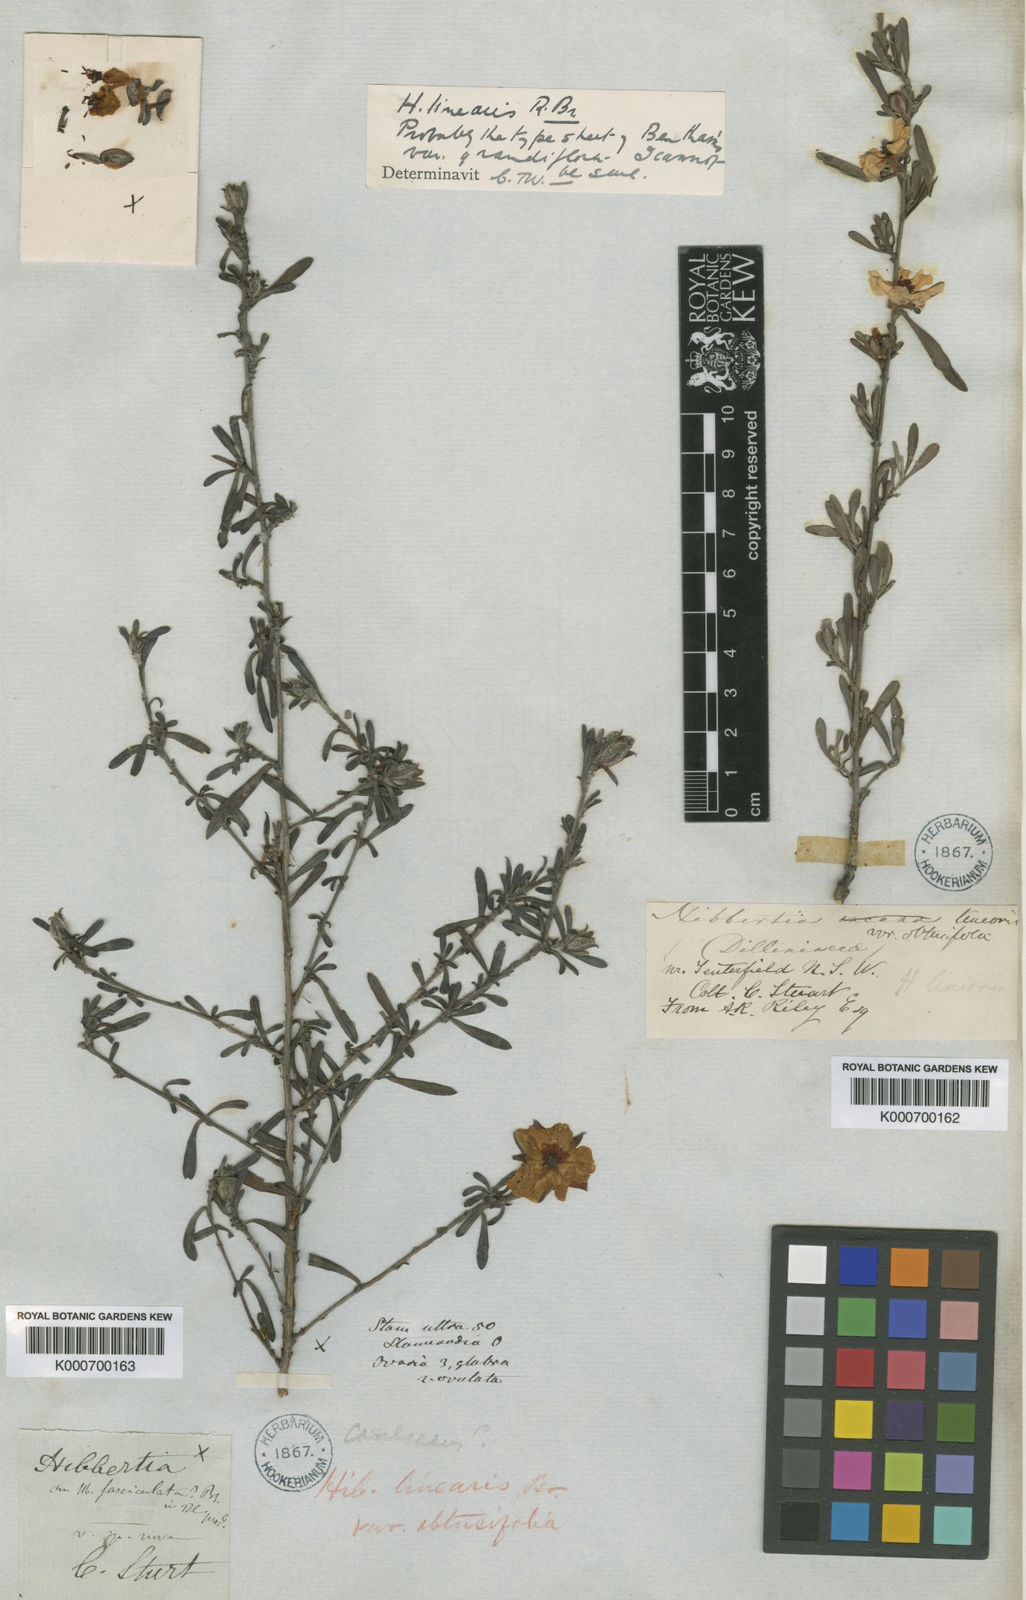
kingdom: Plantae
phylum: Tracheophyta
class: Magnoliopsida
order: Dilleniales
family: Dilleniaceae
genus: Hibbertia
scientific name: Hibbertia linearis
